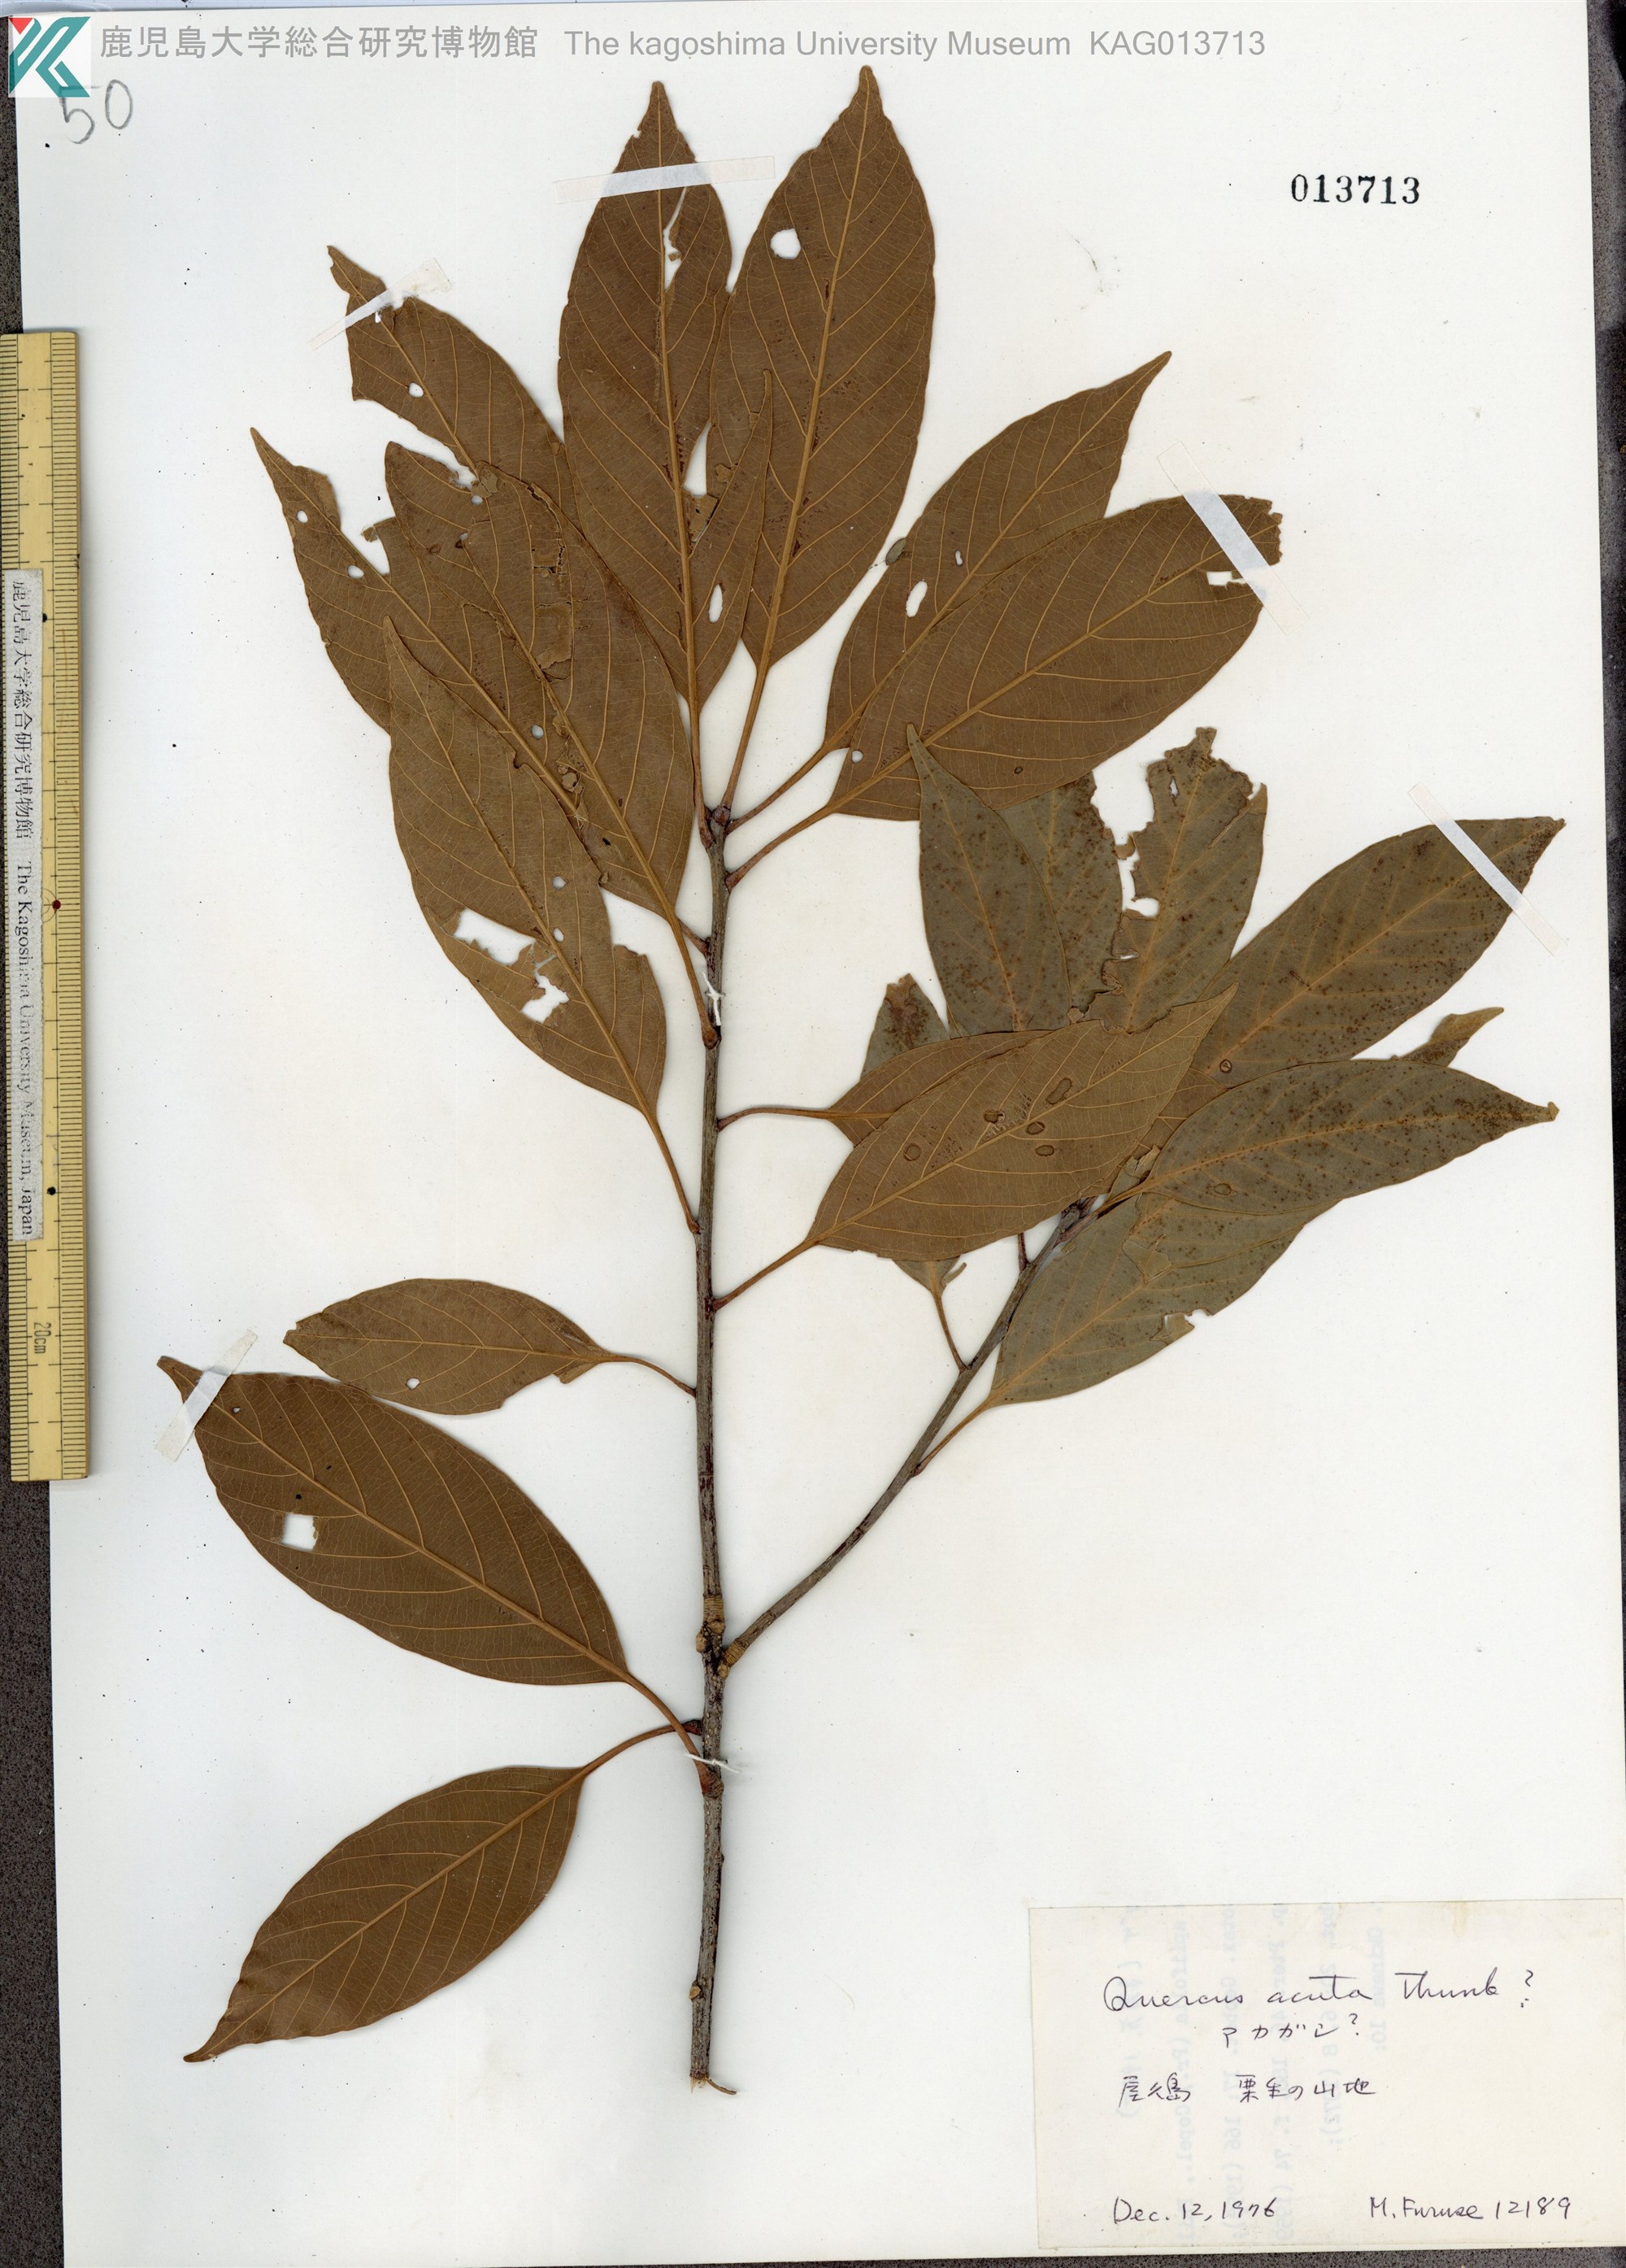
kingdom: Plantae
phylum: Tracheophyta
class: Magnoliopsida
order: Fagales
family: Fagaceae
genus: Quercus
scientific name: Quercus acuta
